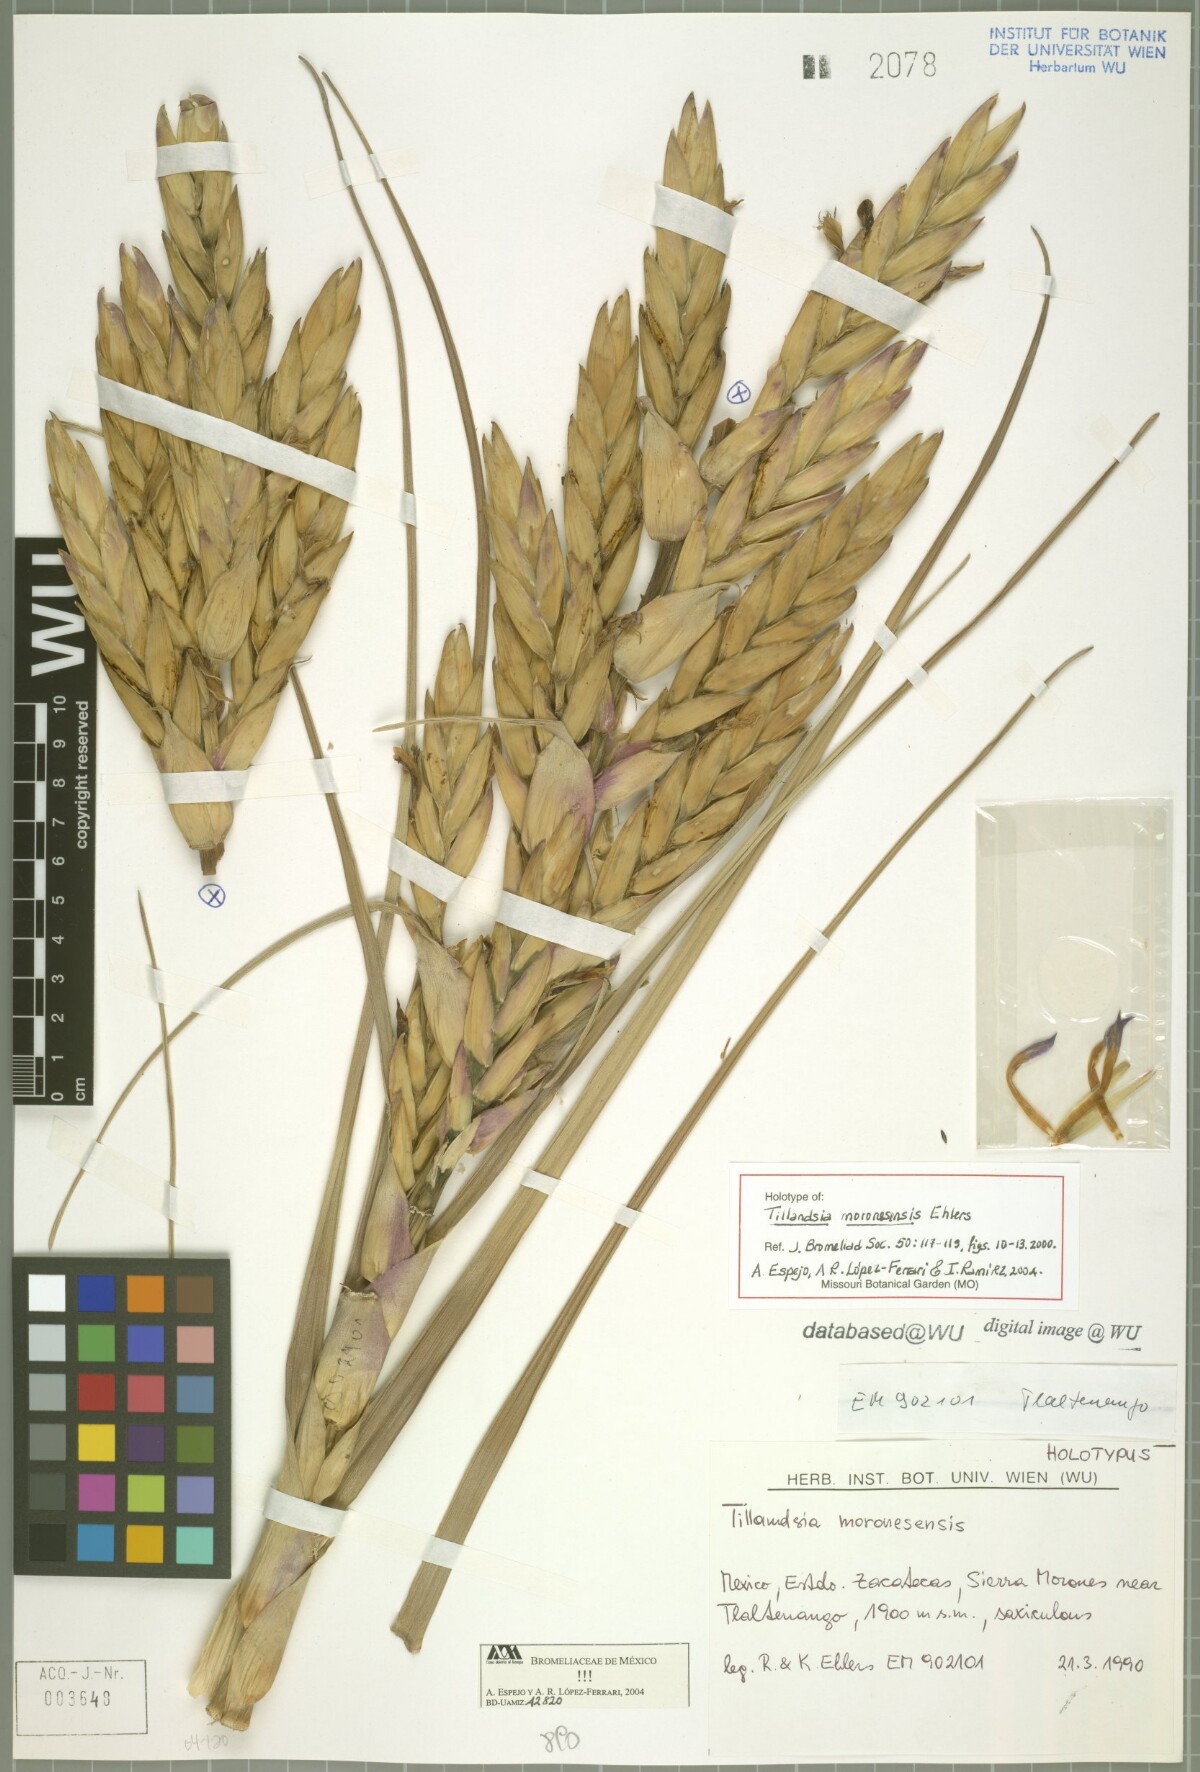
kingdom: Plantae
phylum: Tracheophyta
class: Liliopsida
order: Poales
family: Bromeliaceae
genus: Tillandsia
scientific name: Tillandsia moronesensis
